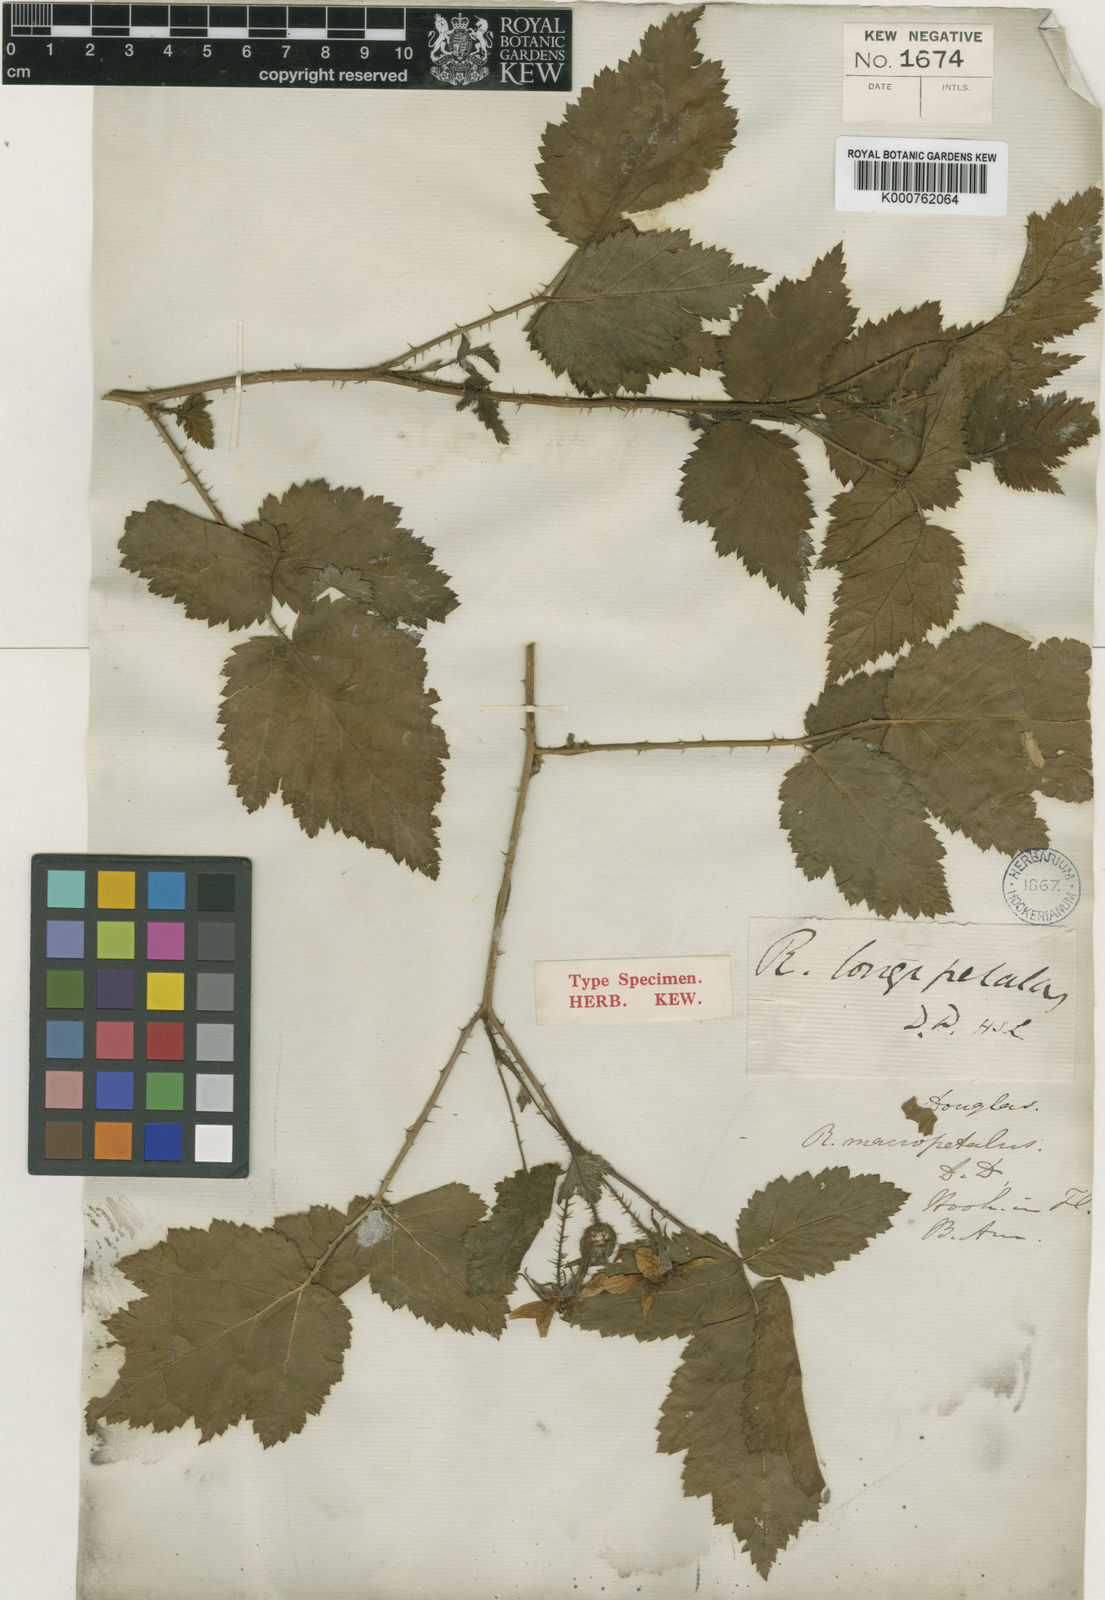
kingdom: Plantae
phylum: Tracheophyta
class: Magnoliopsida
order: Rosales
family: Rosaceae
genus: Rubus
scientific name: Rubus macropetalus
